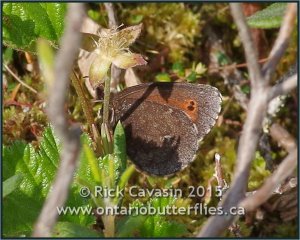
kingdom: Animalia
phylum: Arthropoda
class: Insecta
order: Lepidoptera
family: Nymphalidae
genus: Erebia
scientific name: Erebia disa
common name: Taiga Alpine
